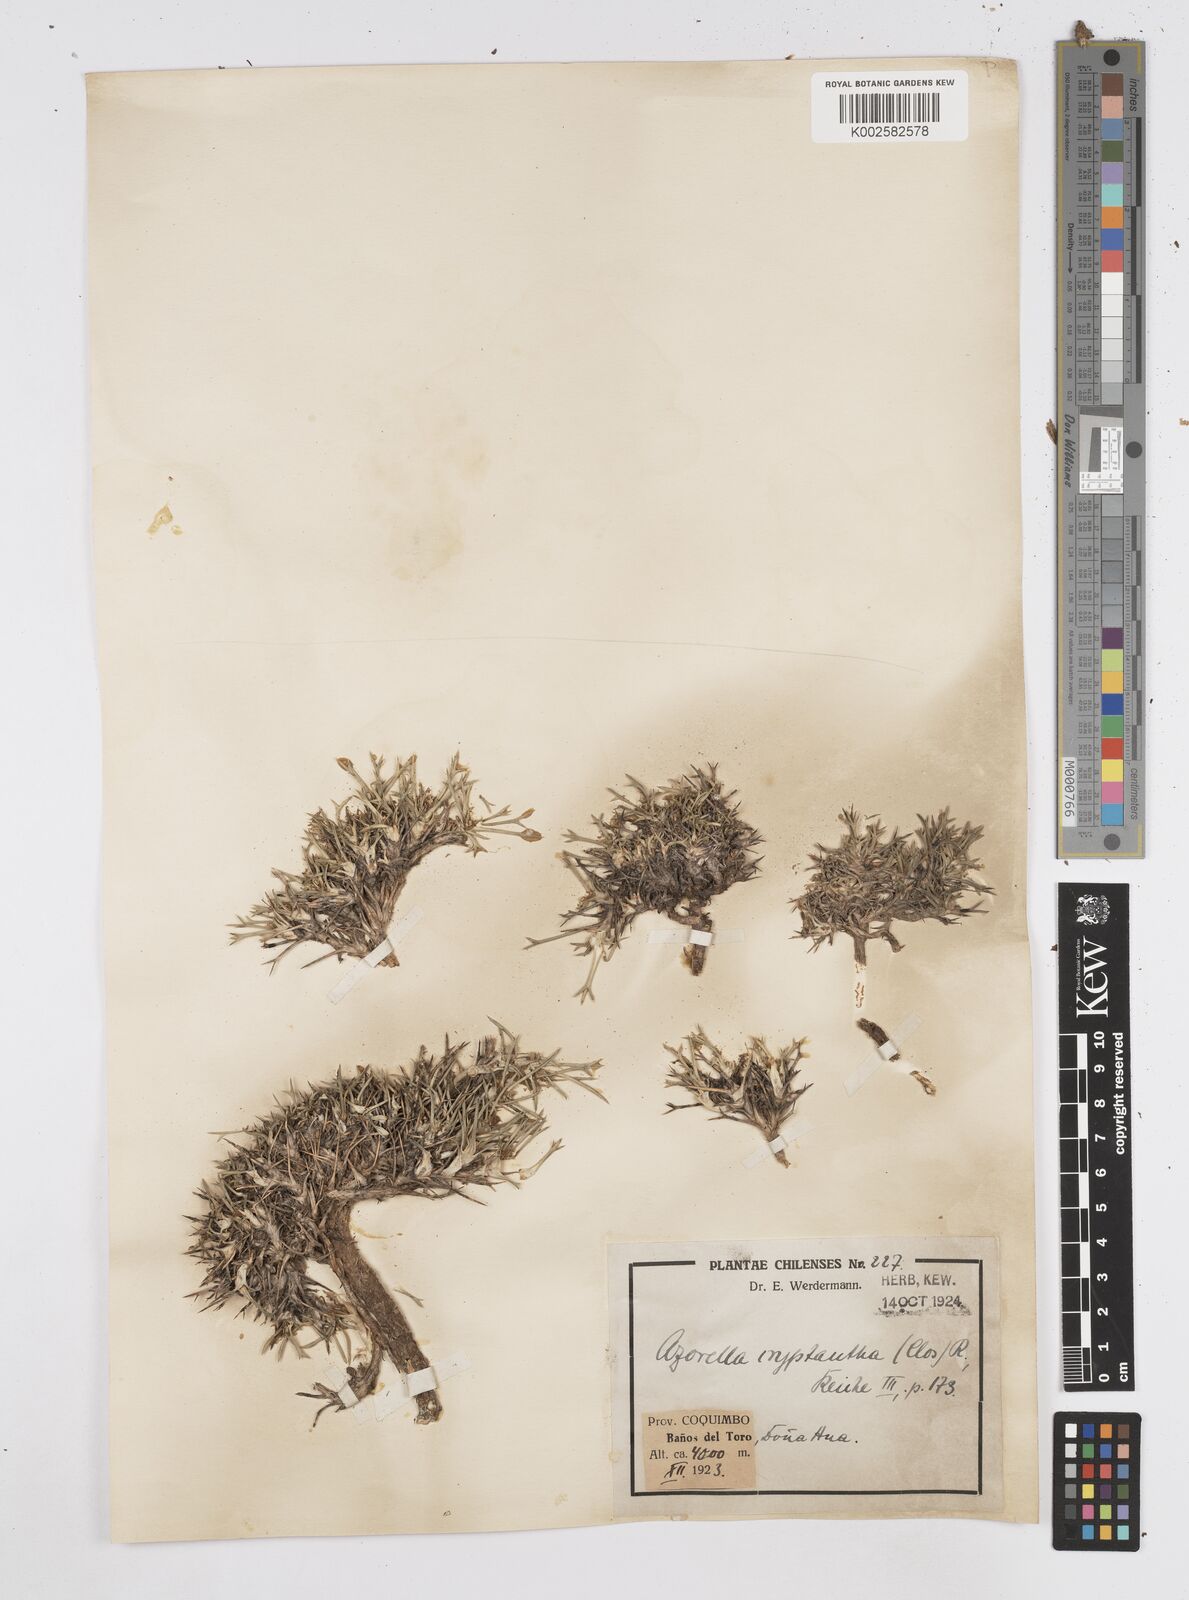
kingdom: Plantae
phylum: Tracheophyta
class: Magnoliopsida
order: Apiales
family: Apiaceae
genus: Azorella
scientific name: Azorella cryptantha
